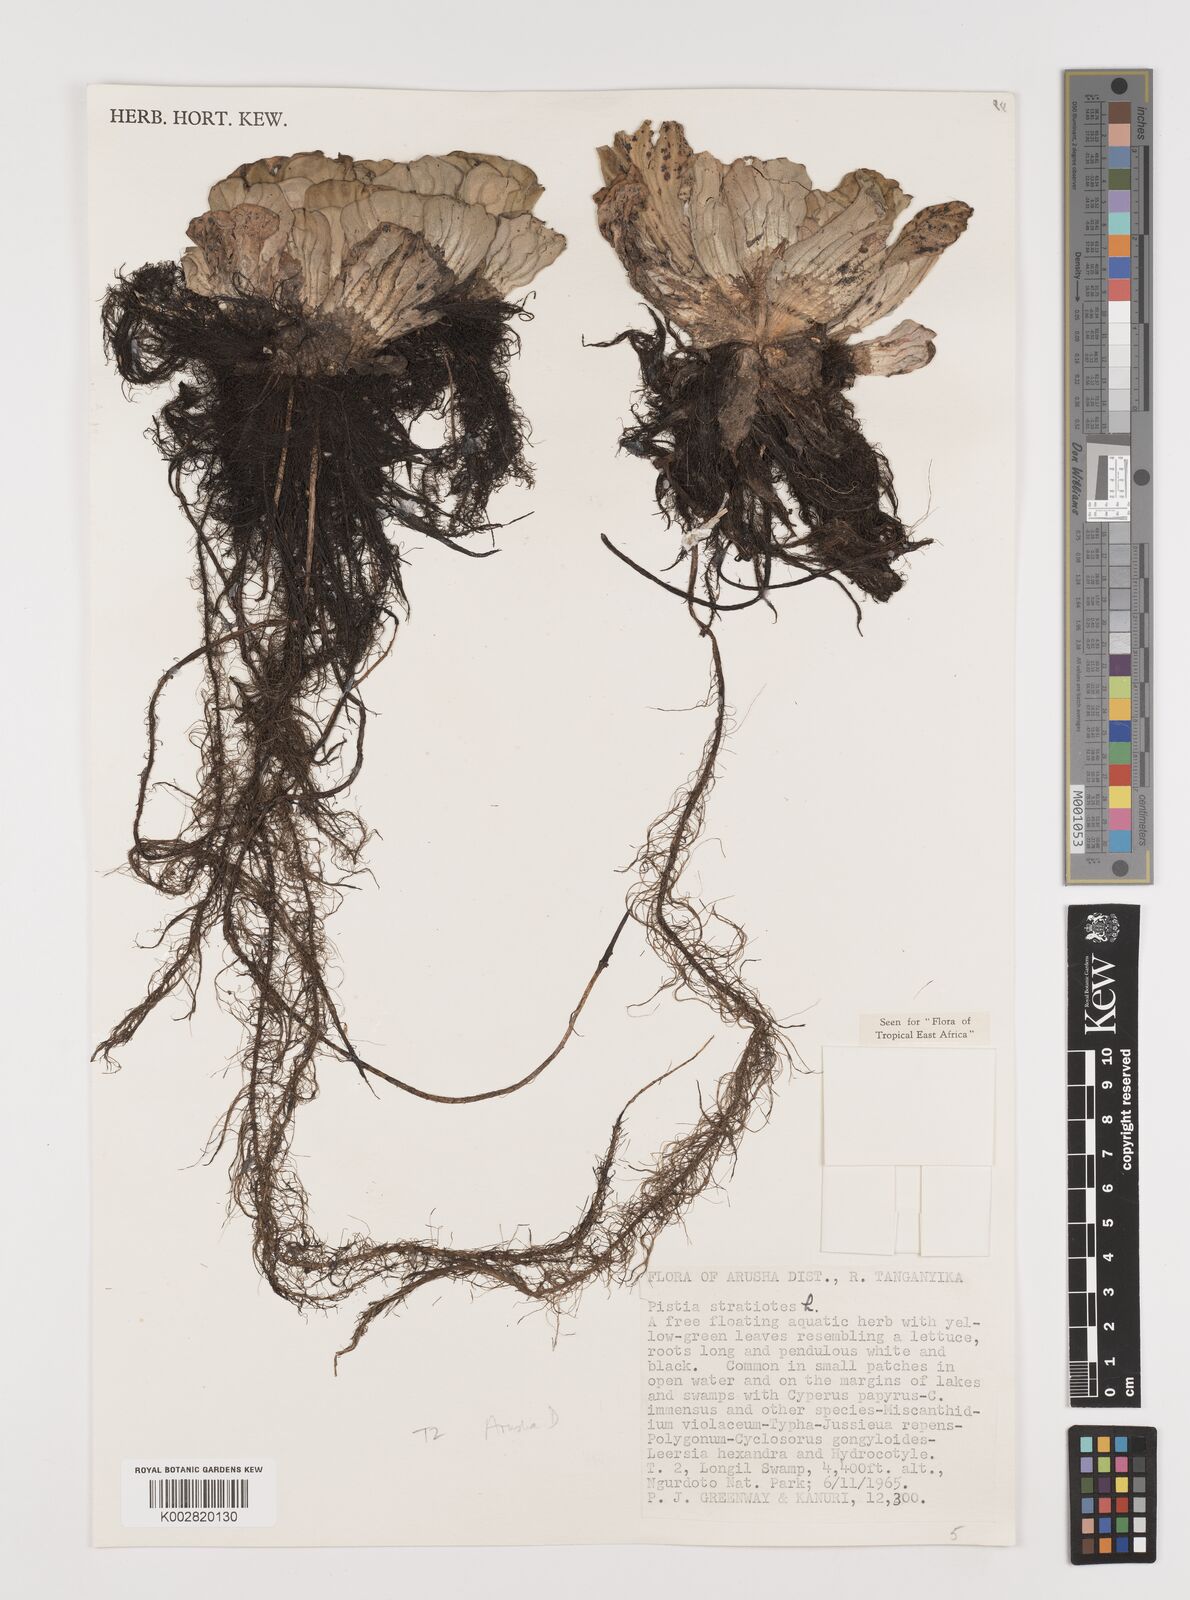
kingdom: Plantae
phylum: Tracheophyta
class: Liliopsida
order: Alismatales
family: Araceae
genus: Pistia
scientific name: Pistia stratiotes
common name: Water lettuce
